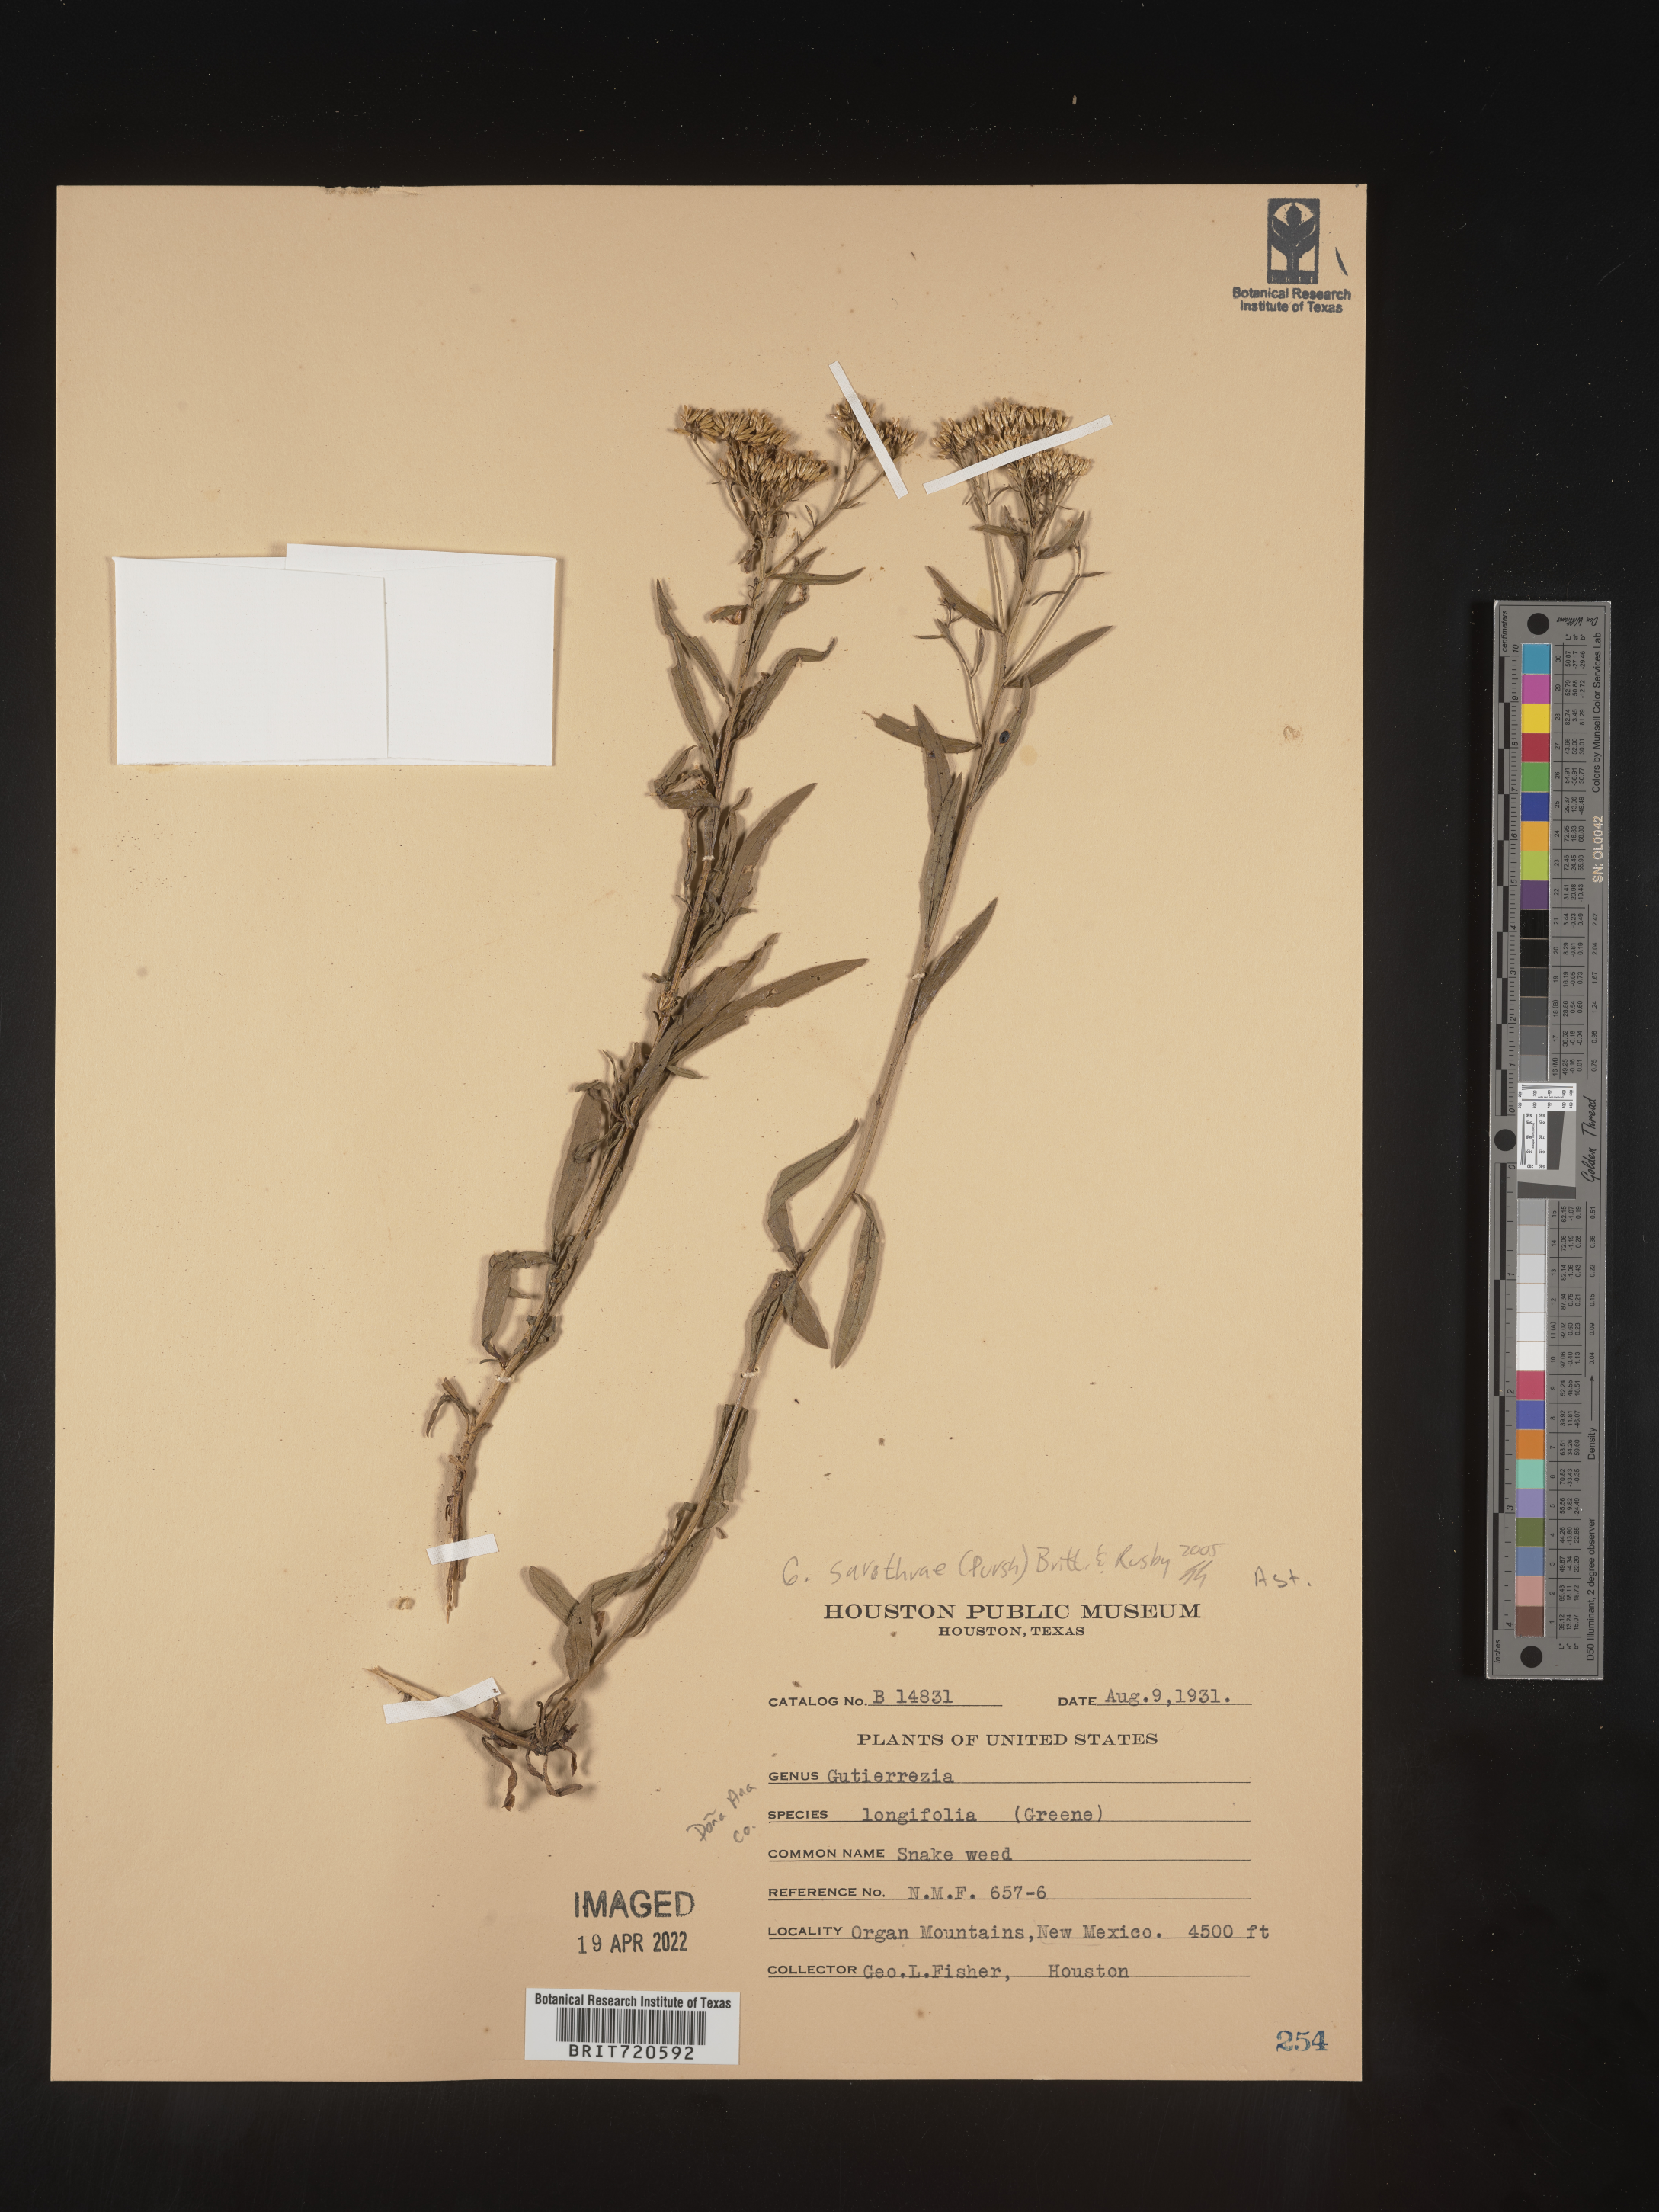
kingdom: Plantae
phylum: Tracheophyta
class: Magnoliopsida
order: Asterales
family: Asteraceae
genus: Gutierrezia
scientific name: Gutierrezia sarothrae
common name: Broom snakeweed
